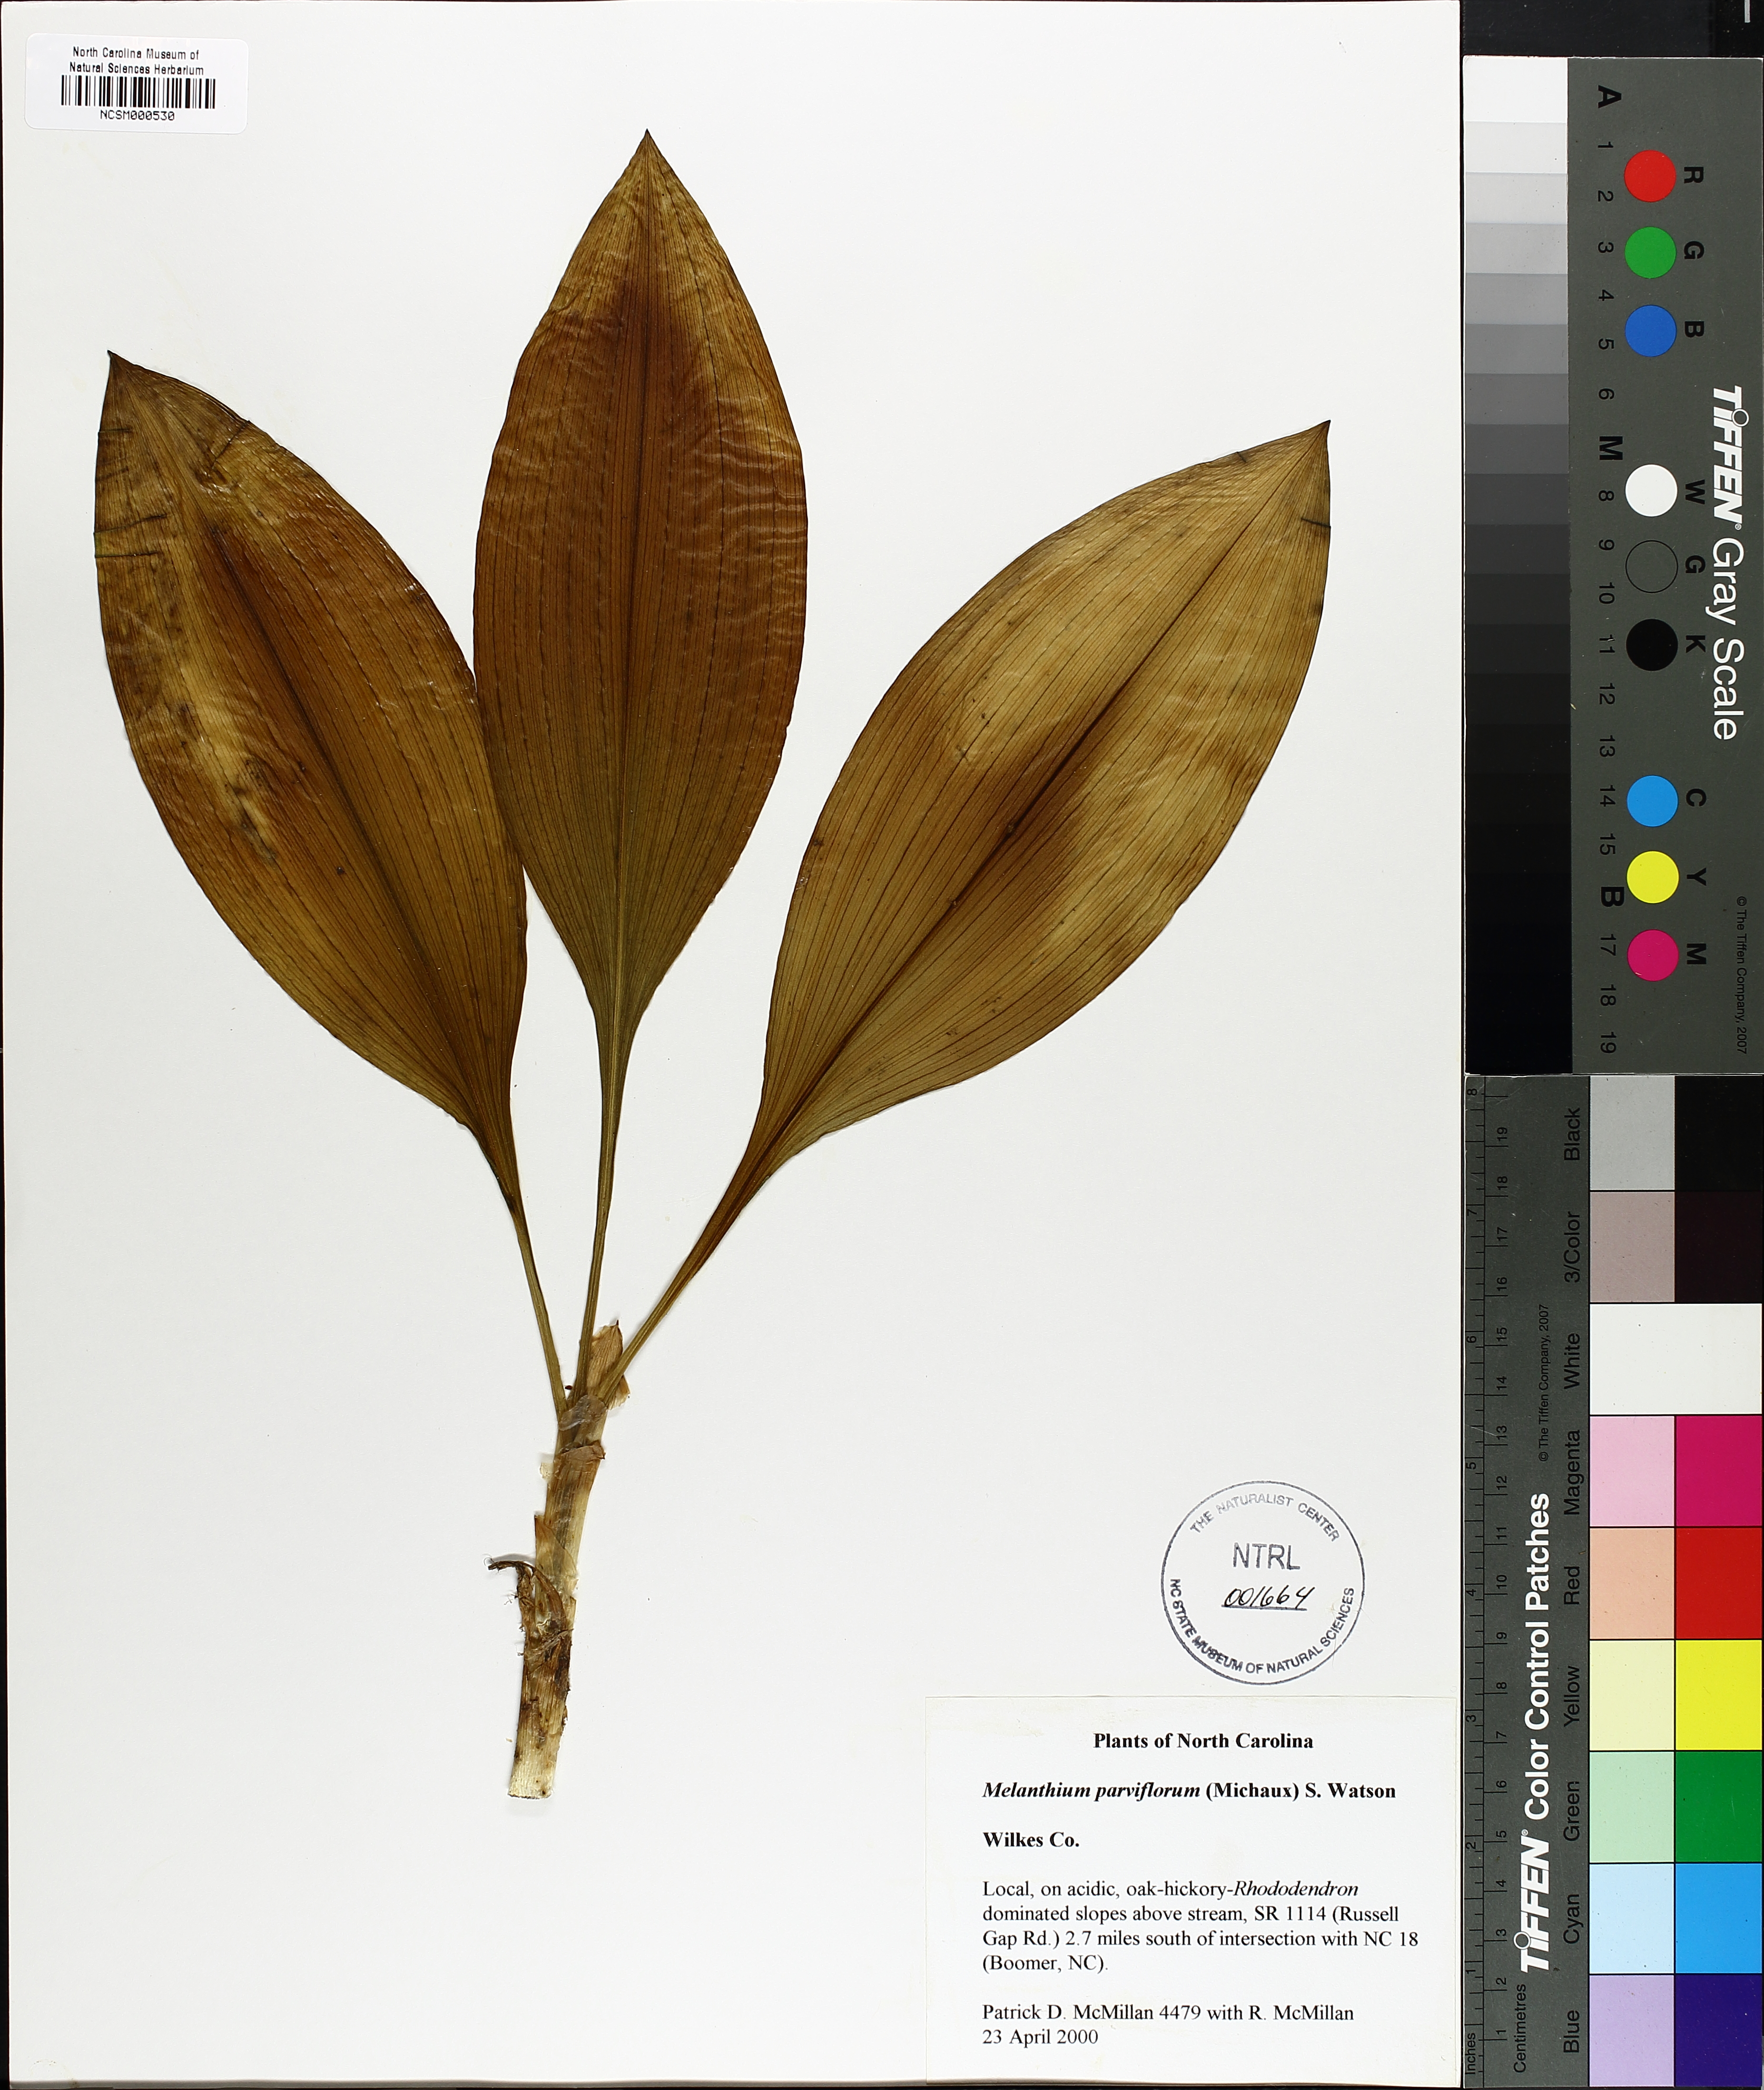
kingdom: Plantae
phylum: Tracheophyta
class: Liliopsida
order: Liliales
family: Melanthiaceae
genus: Melanthium
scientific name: Melanthium parviflorum
